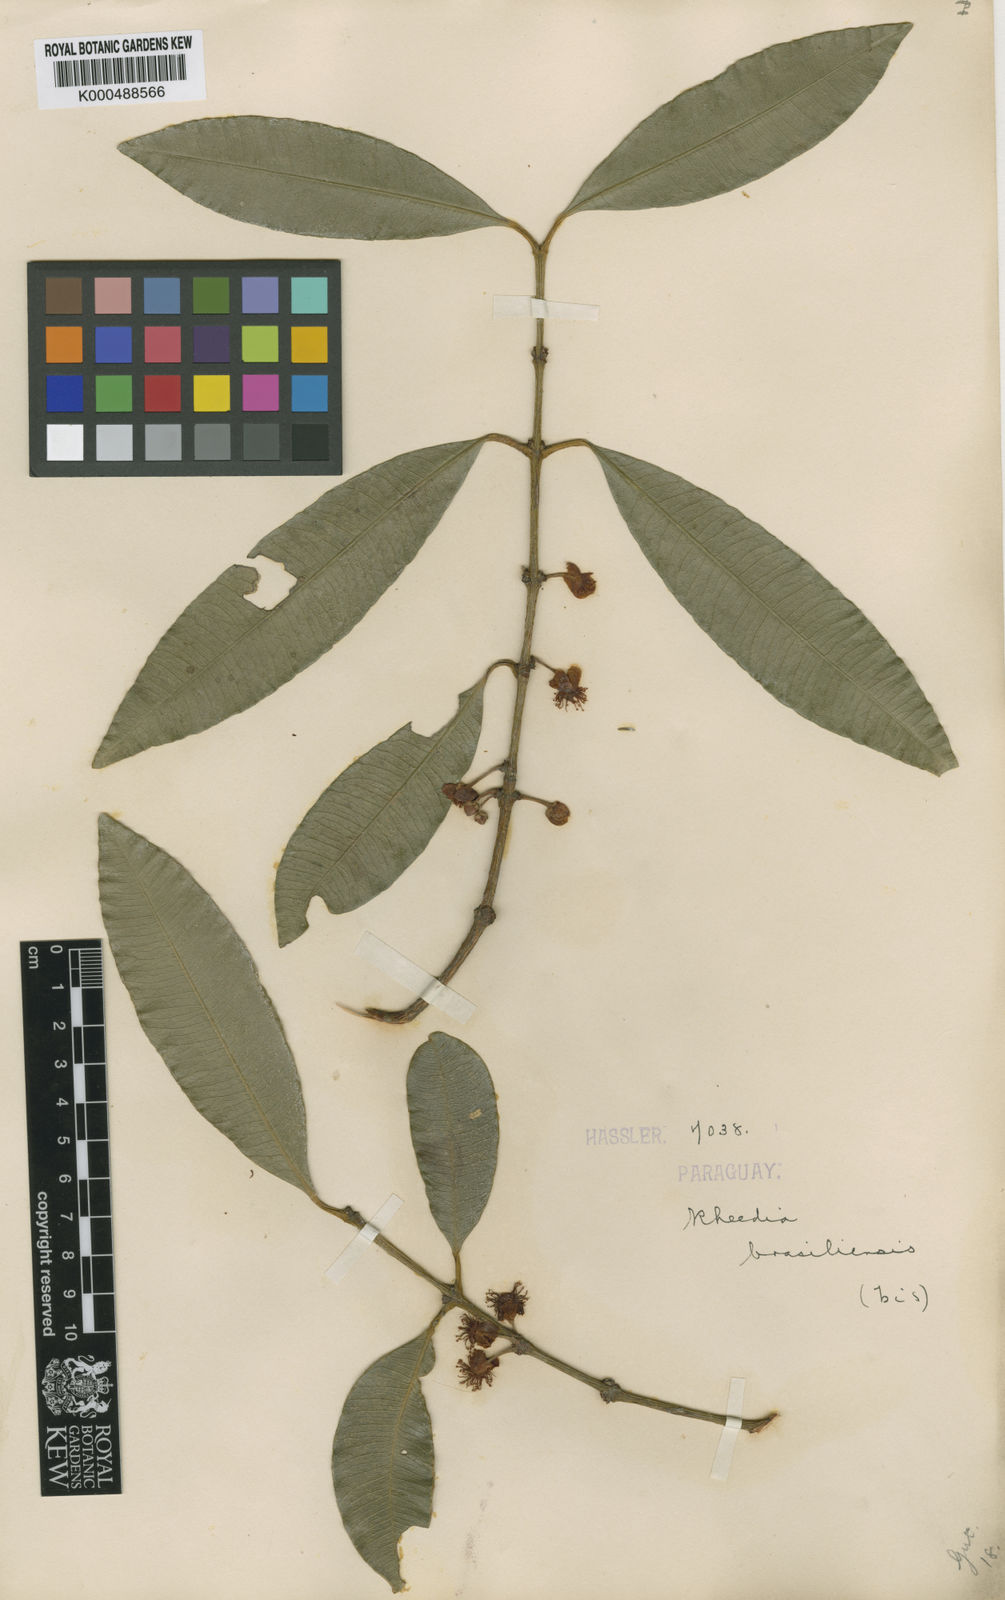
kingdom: Plantae
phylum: Tracheophyta
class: Magnoliopsida
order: Malpighiales
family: Clusiaceae
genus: Garcinia
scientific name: Garcinia brasiliensis
